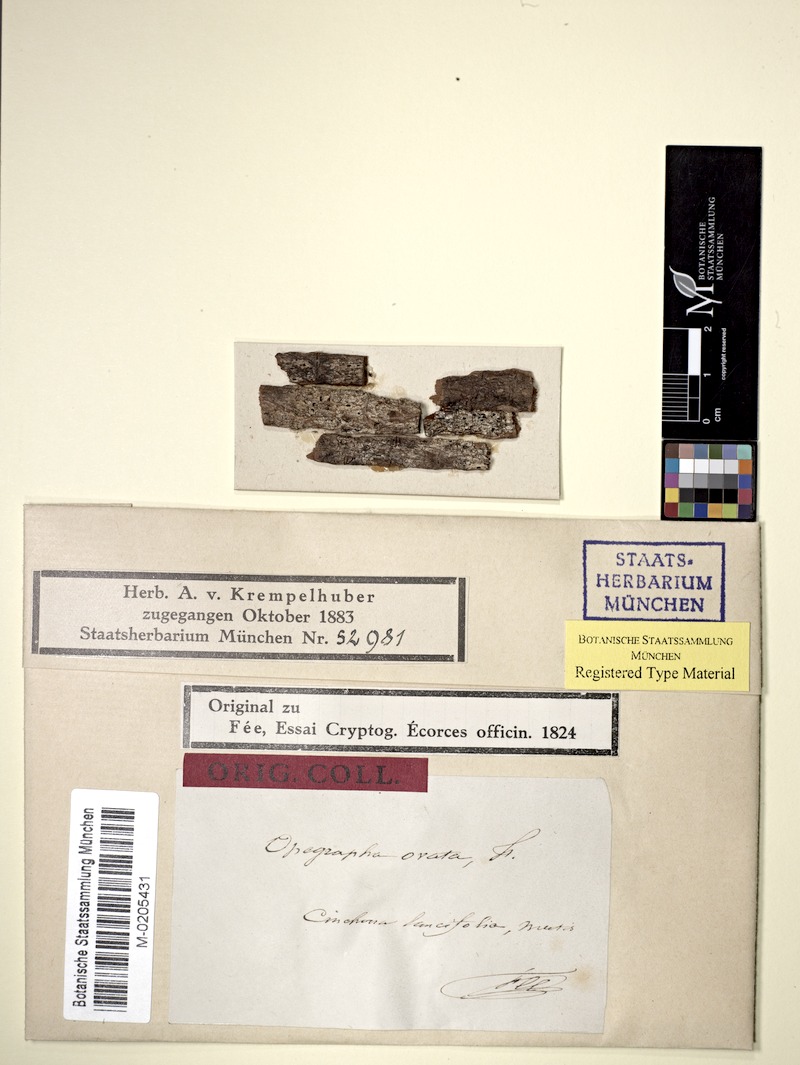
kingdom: Fungi
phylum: Ascomycota
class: Lecanoromycetes
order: Ostropales
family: Graphidaceae
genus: Allographa
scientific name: Allographa ovata
